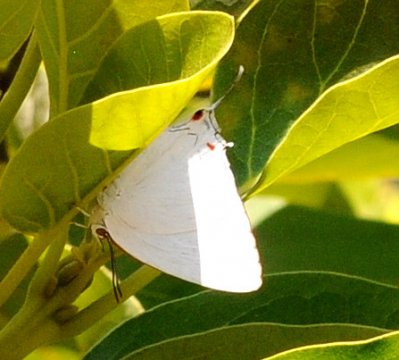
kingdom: Animalia
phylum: Arthropoda
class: Insecta
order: Lepidoptera
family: Lycaenidae
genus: Iolaus
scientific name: Iolaus
